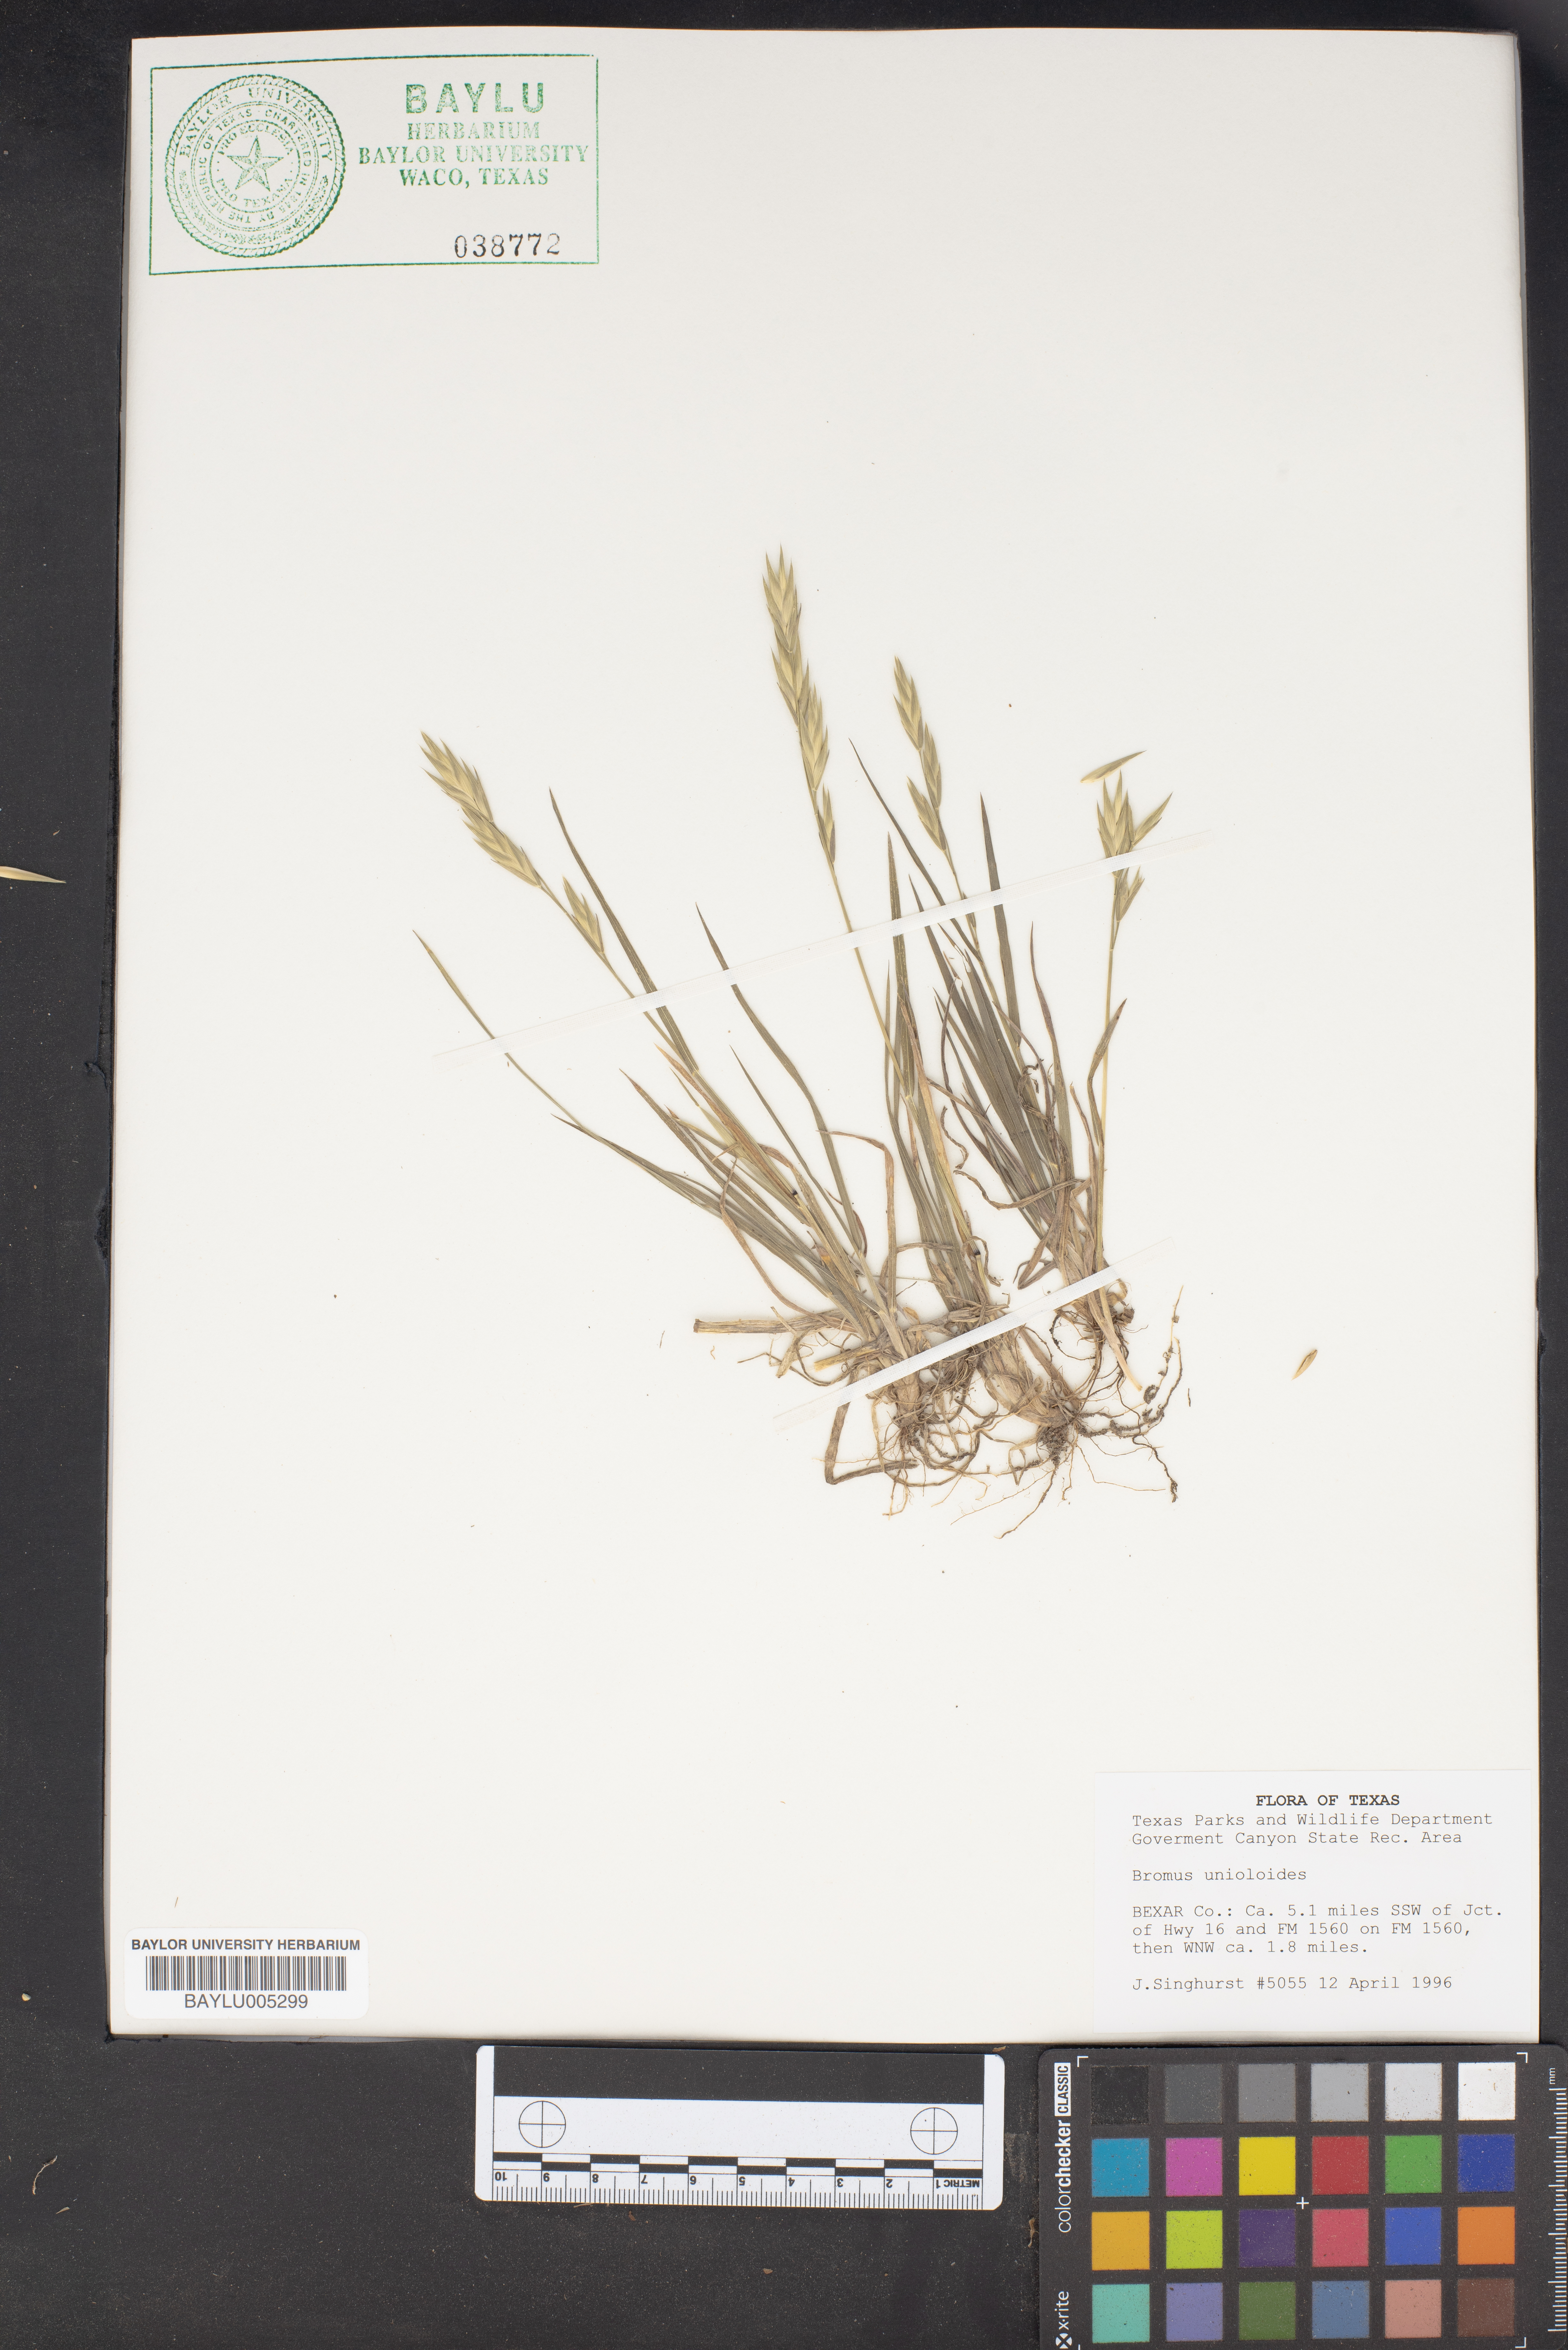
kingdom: Plantae
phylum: Tracheophyta
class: Liliopsida
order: Poales
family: Poaceae
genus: Bromus
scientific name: Bromus catharticus
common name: Rescuegrass
